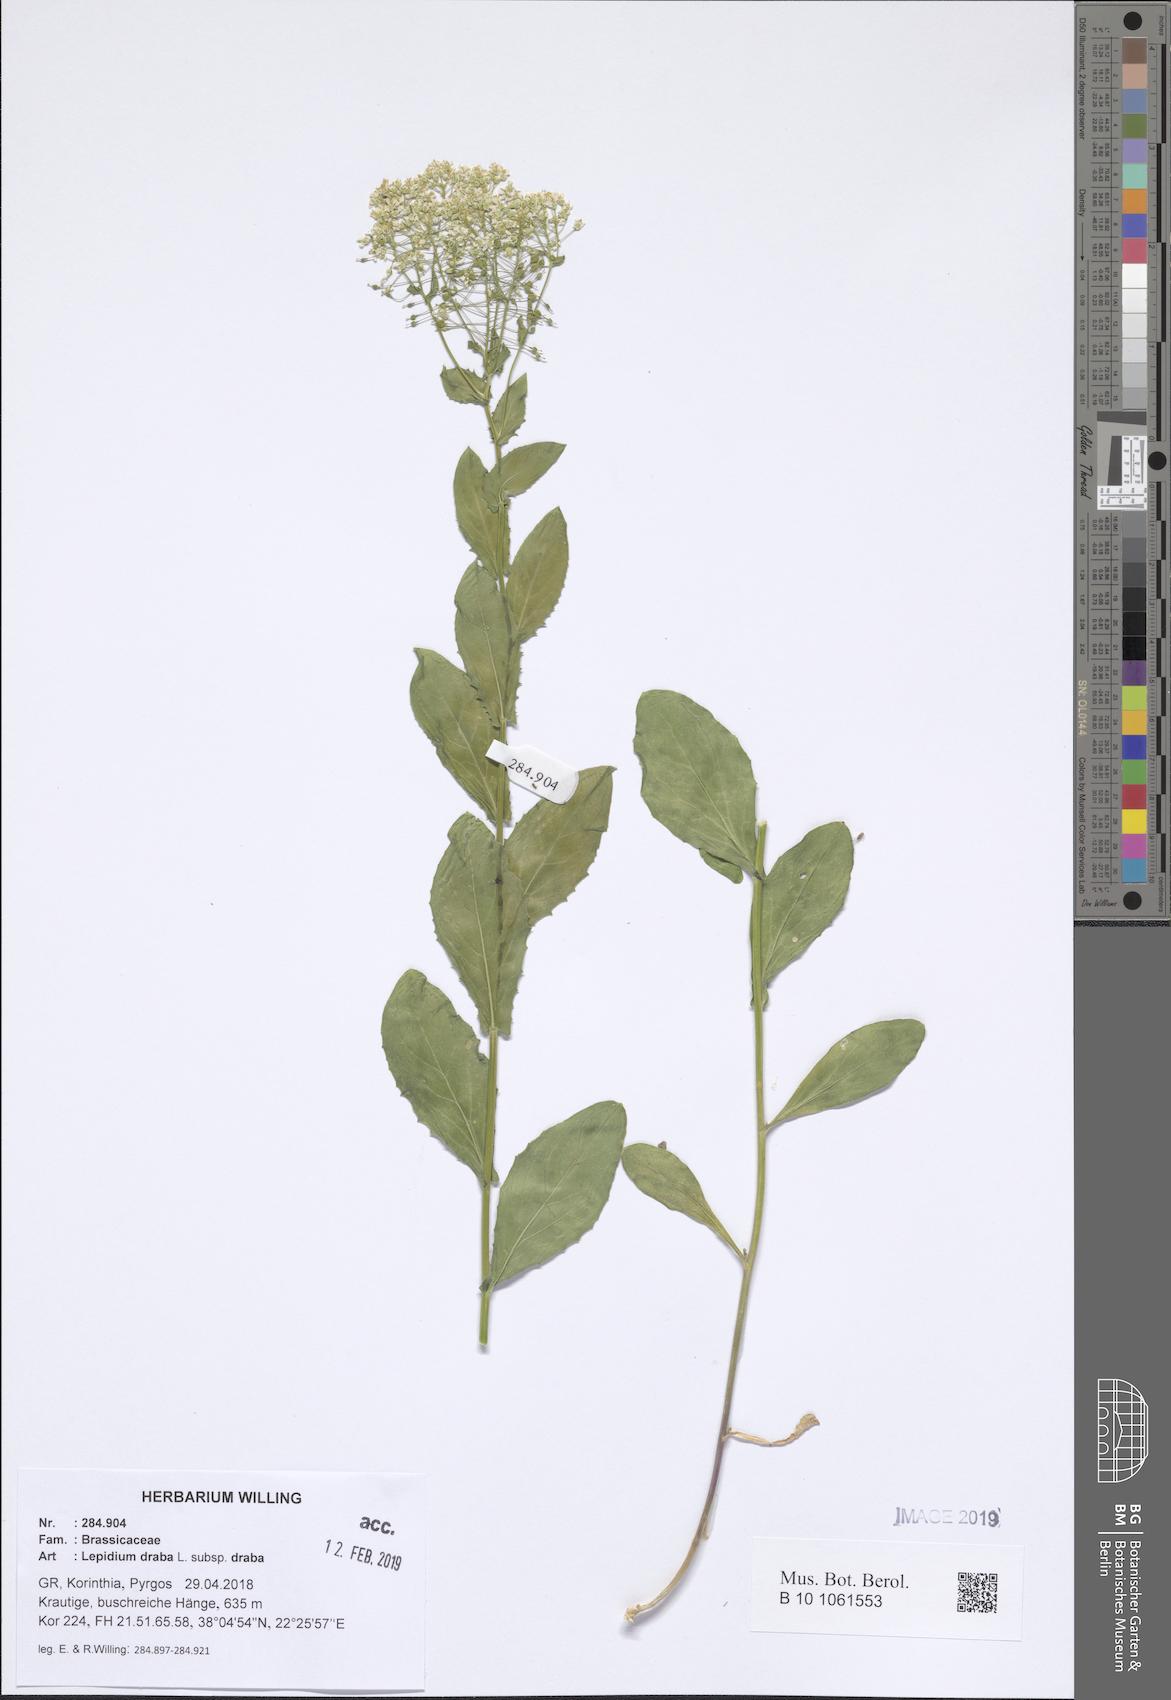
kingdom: Plantae
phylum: Tracheophyta
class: Magnoliopsida
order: Brassicales
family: Brassicaceae
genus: Lepidium
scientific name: Lepidium draba
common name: Hoary cress
